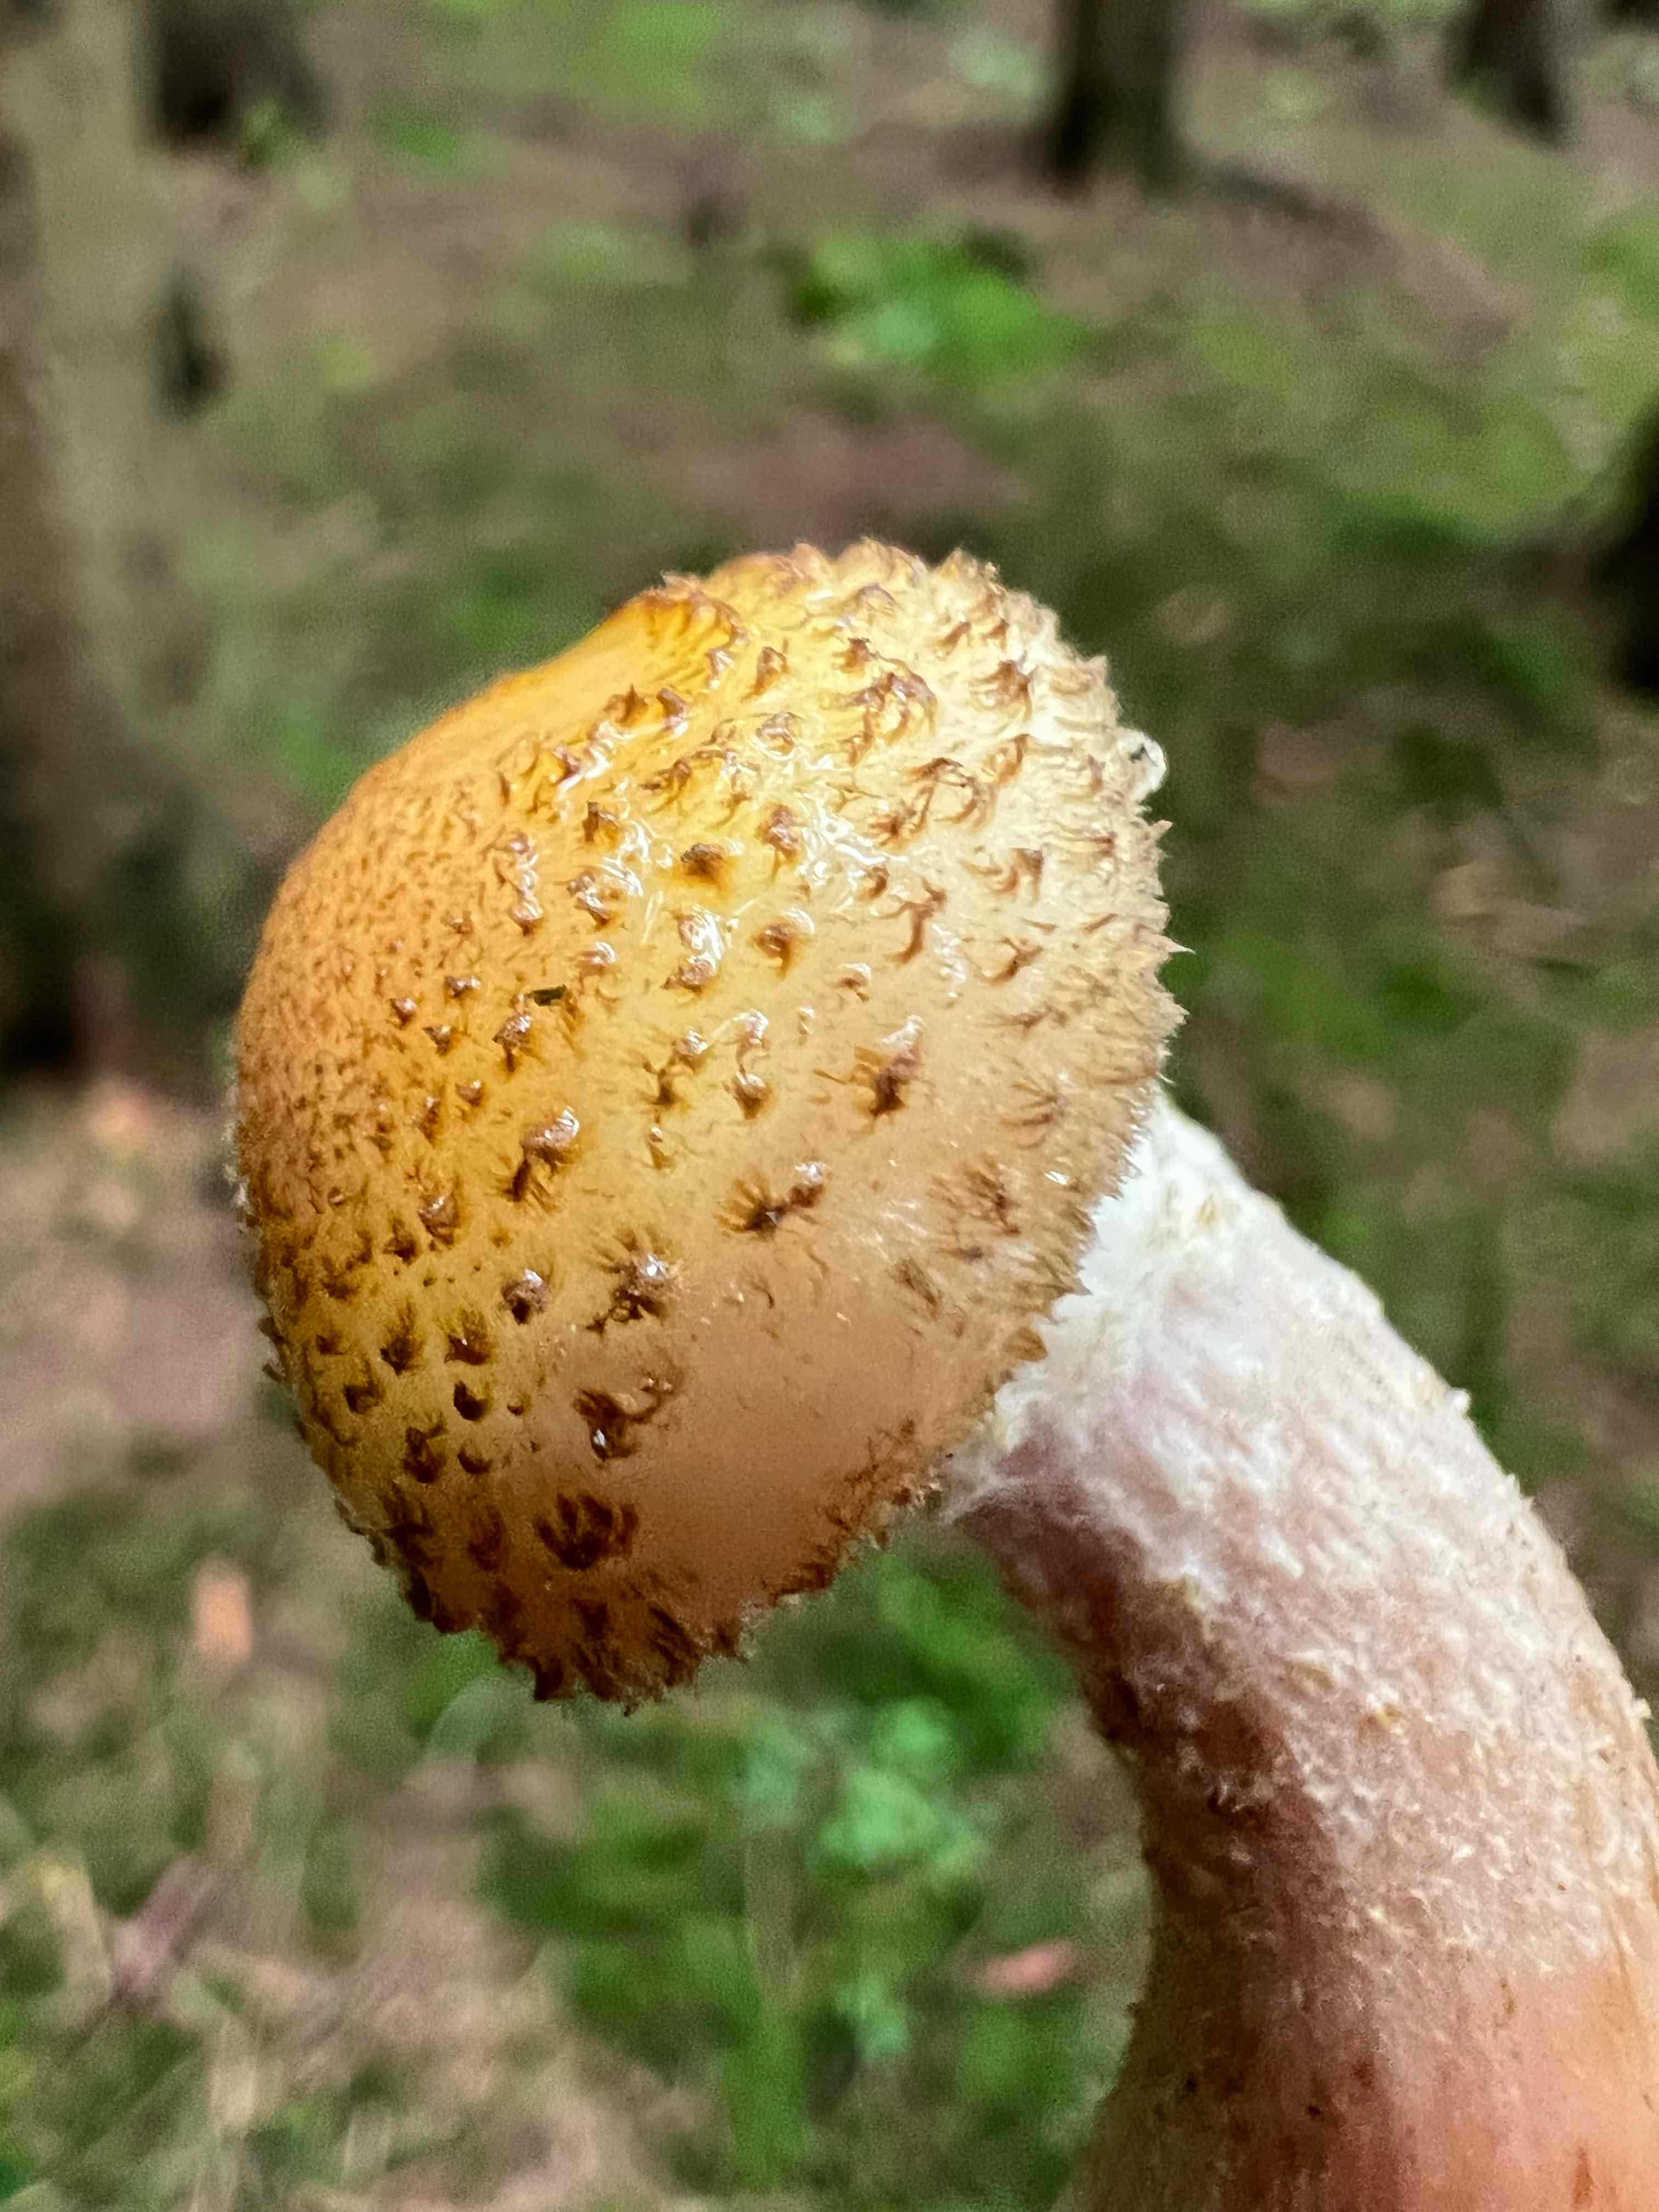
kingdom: Fungi
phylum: Basidiomycota
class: Agaricomycetes
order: Agaricales
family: Physalacriaceae
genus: Armillaria
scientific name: Armillaria ostoyae
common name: mørk honningsvamp
